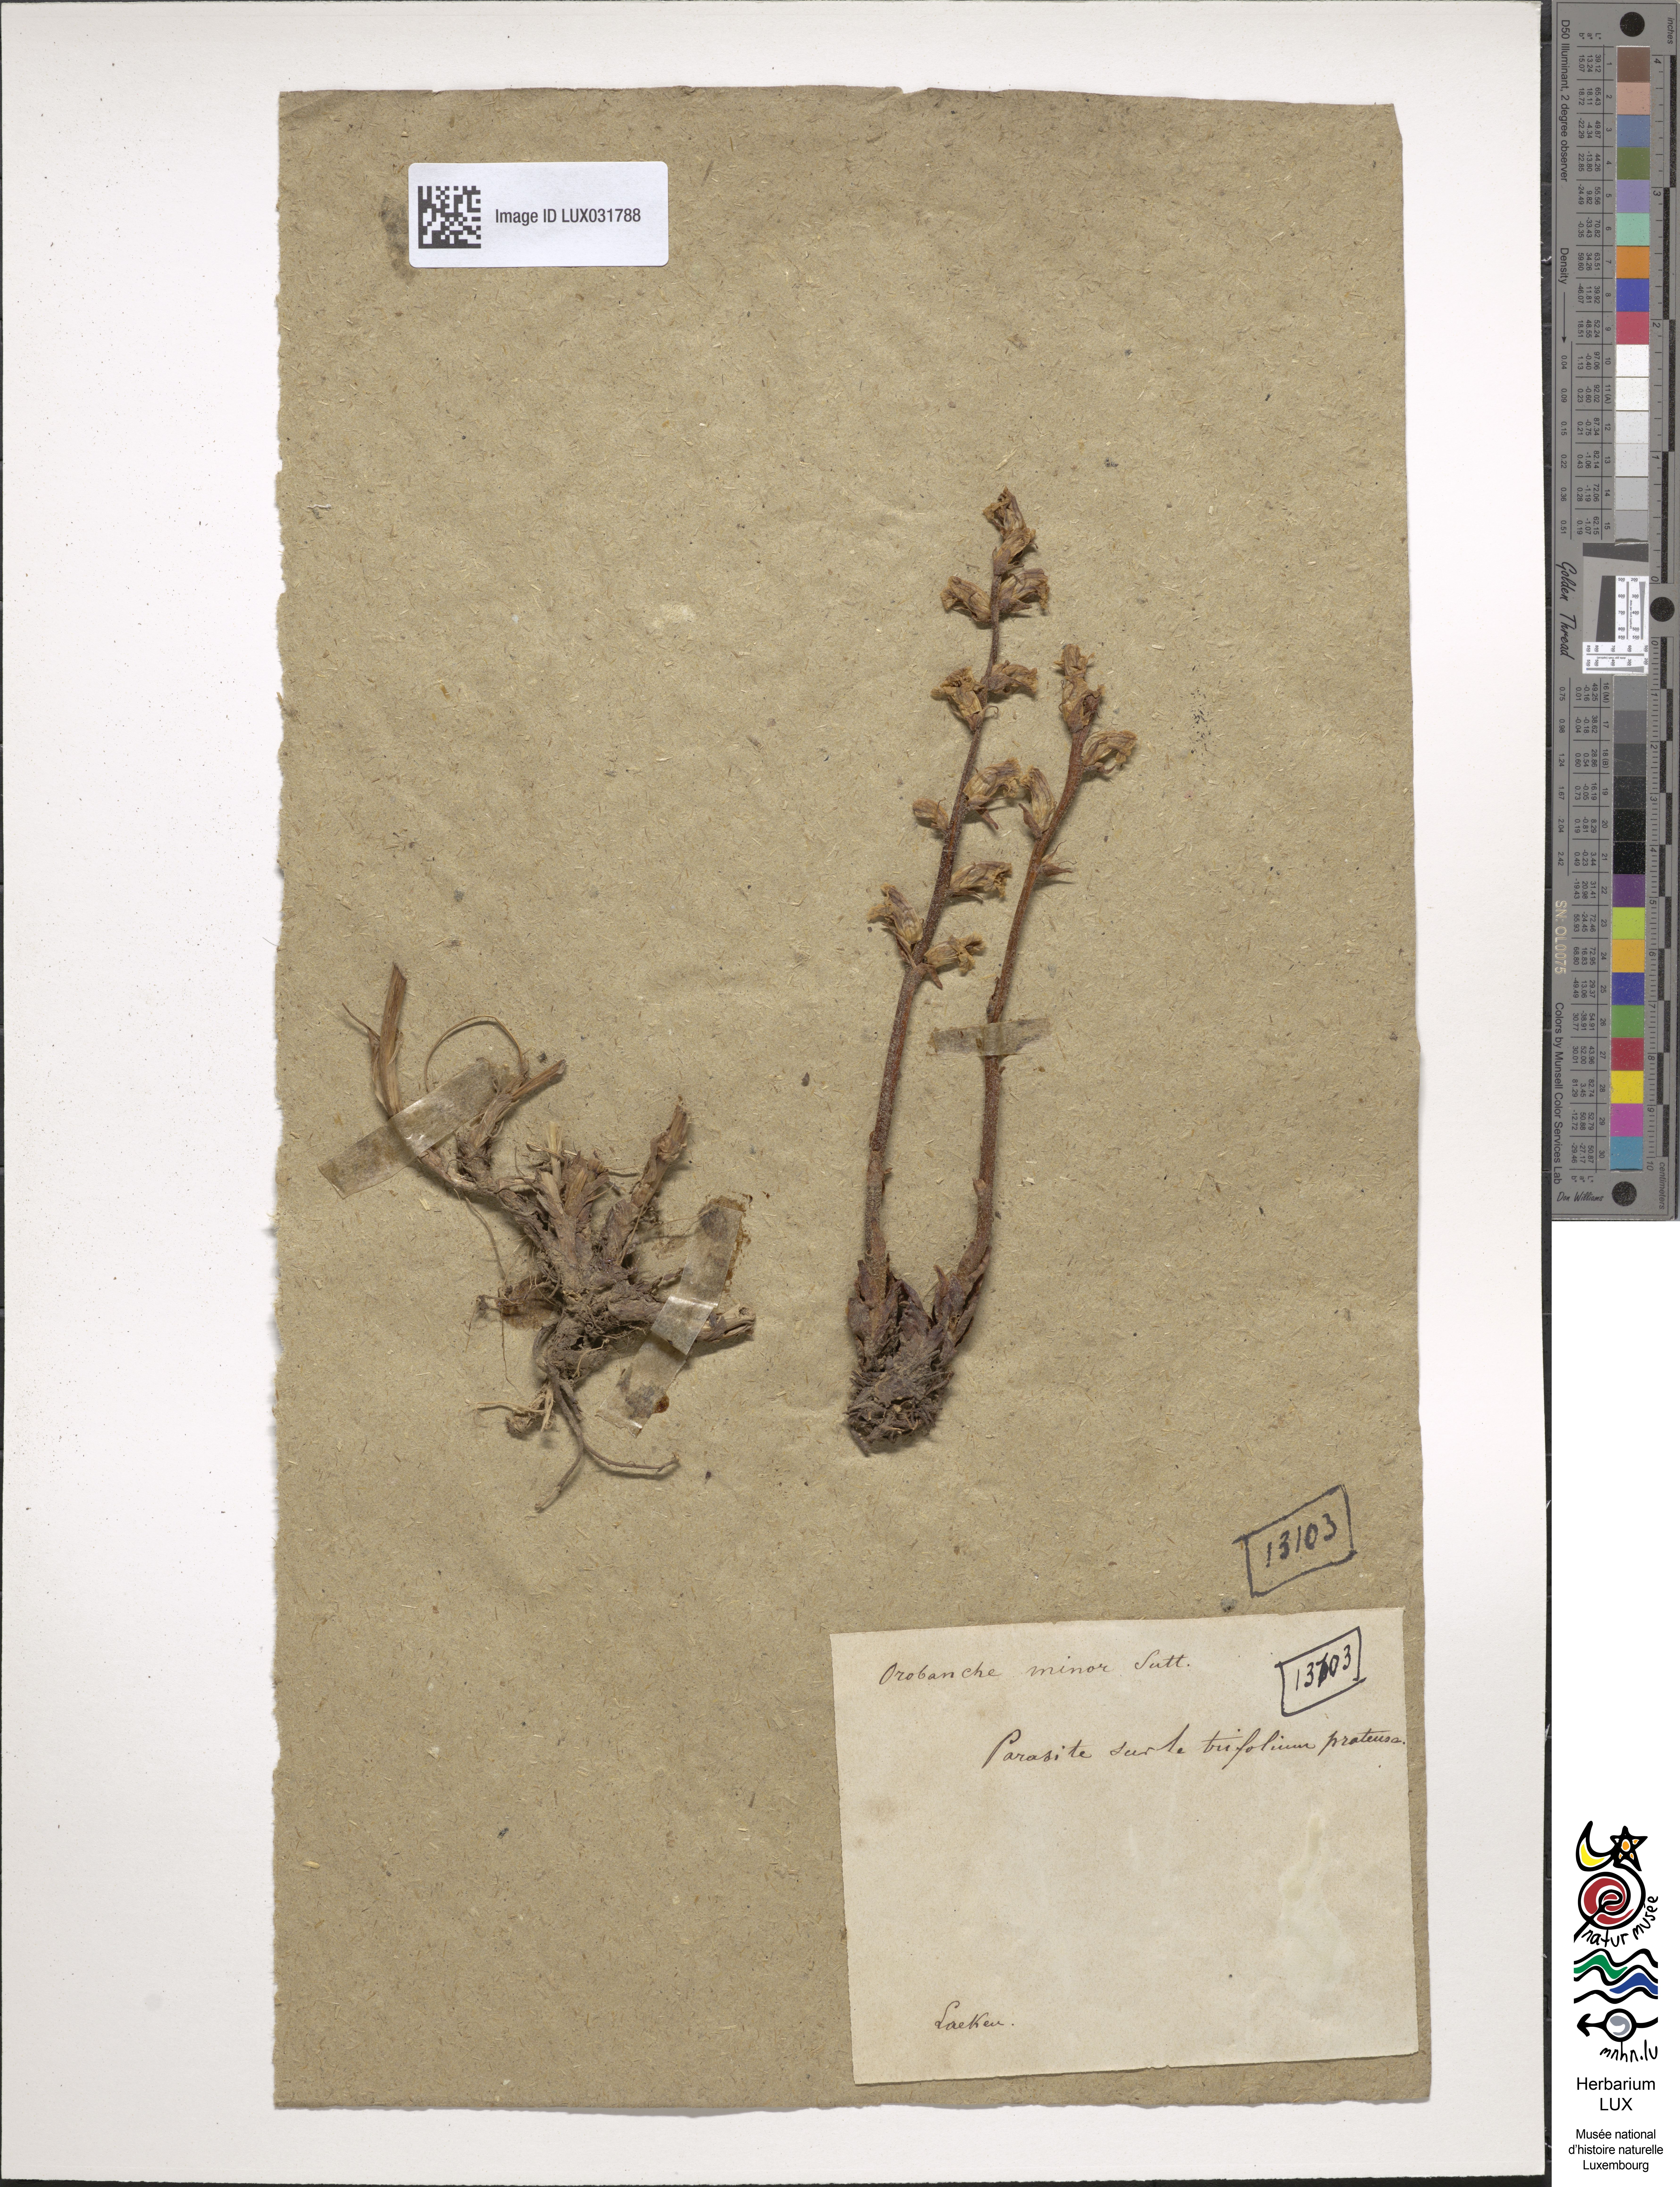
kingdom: Plantae
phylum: Tracheophyta
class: Magnoliopsida
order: Lamiales
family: Orobanchaceae
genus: Orobanche
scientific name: Orobanche minor
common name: Common broomrape
